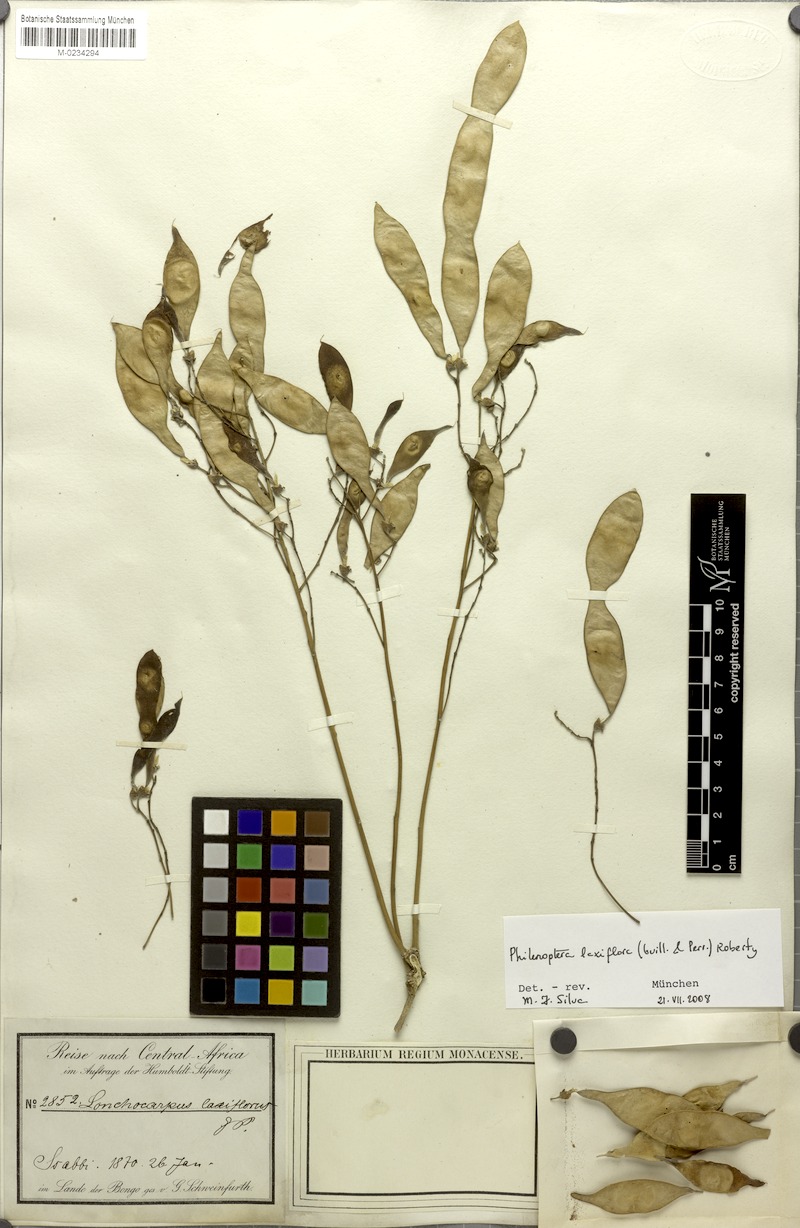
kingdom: Plantae
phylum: Tracheophyta
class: Magnoliopsida
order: Fabales
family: Fabaceae
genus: Philenoptera
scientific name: Philenoptera laxiflora
